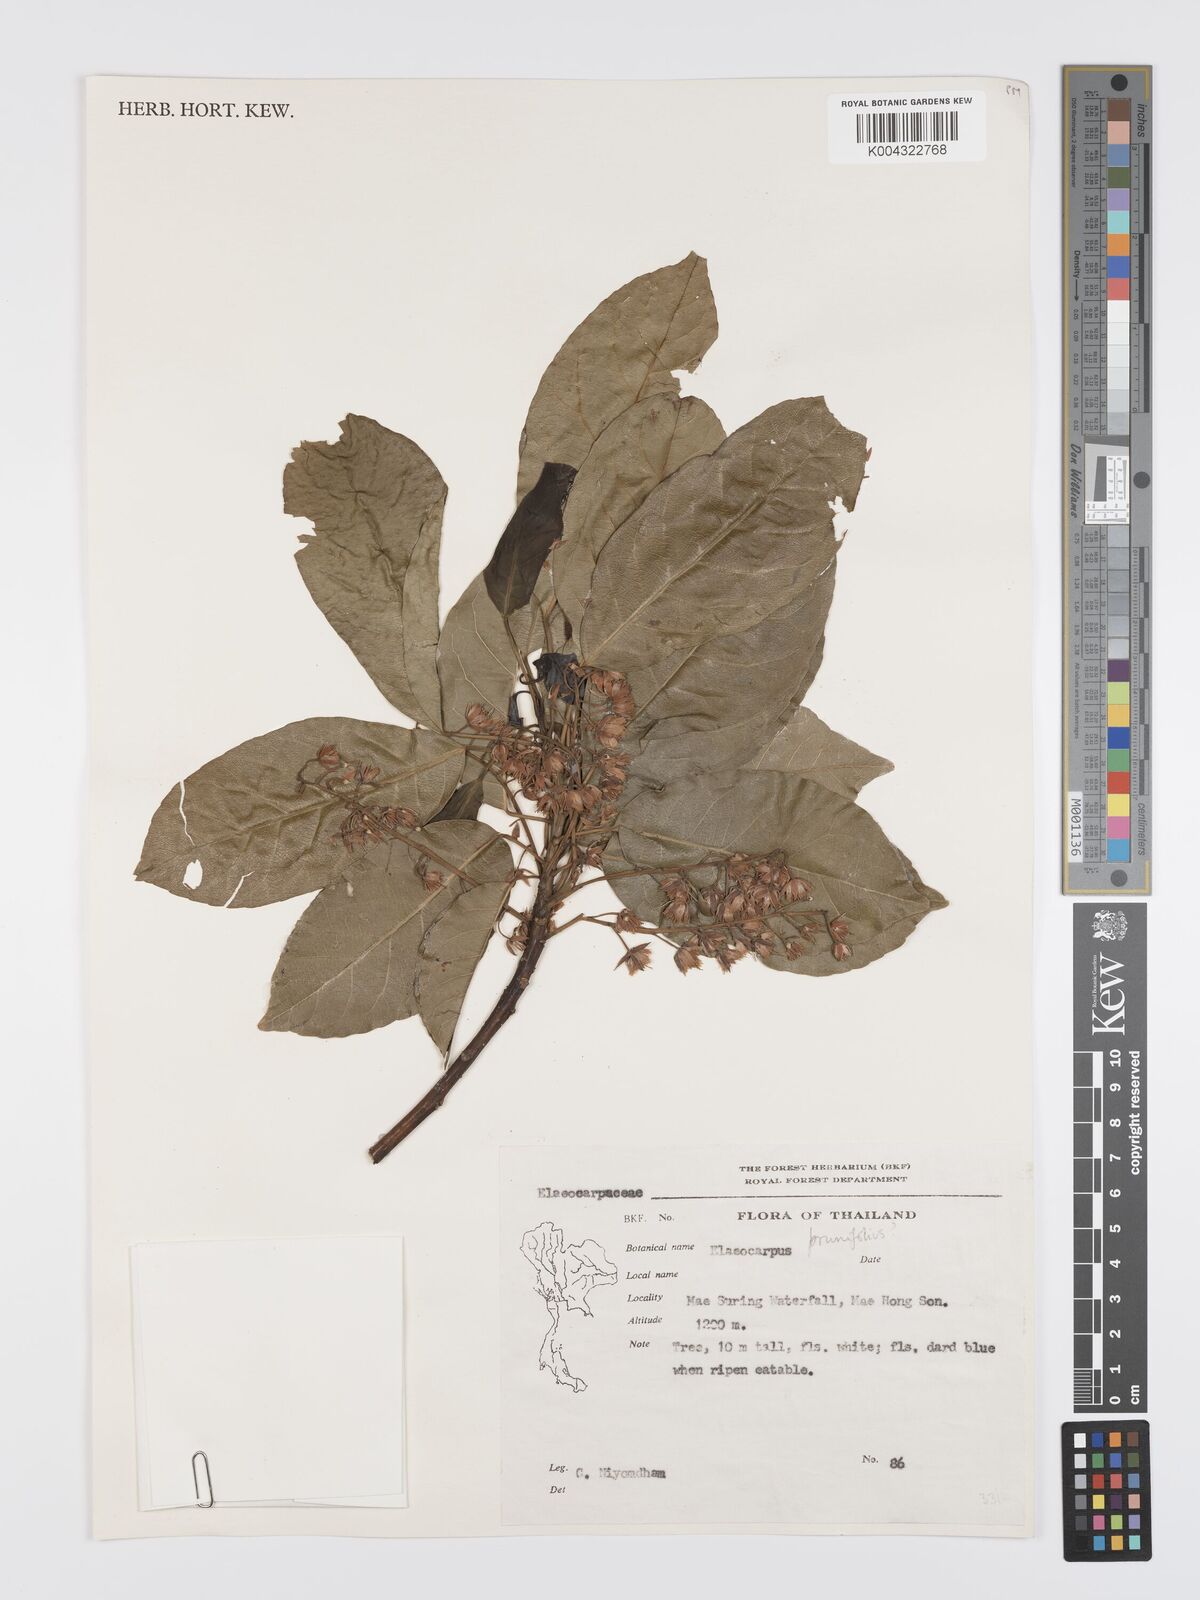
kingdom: Plantae
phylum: Tracheophyta
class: Magnoliopsida
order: Oxalidales
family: Elaeocarpaceae
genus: Elaeocarpus
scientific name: Elaeocarpus
